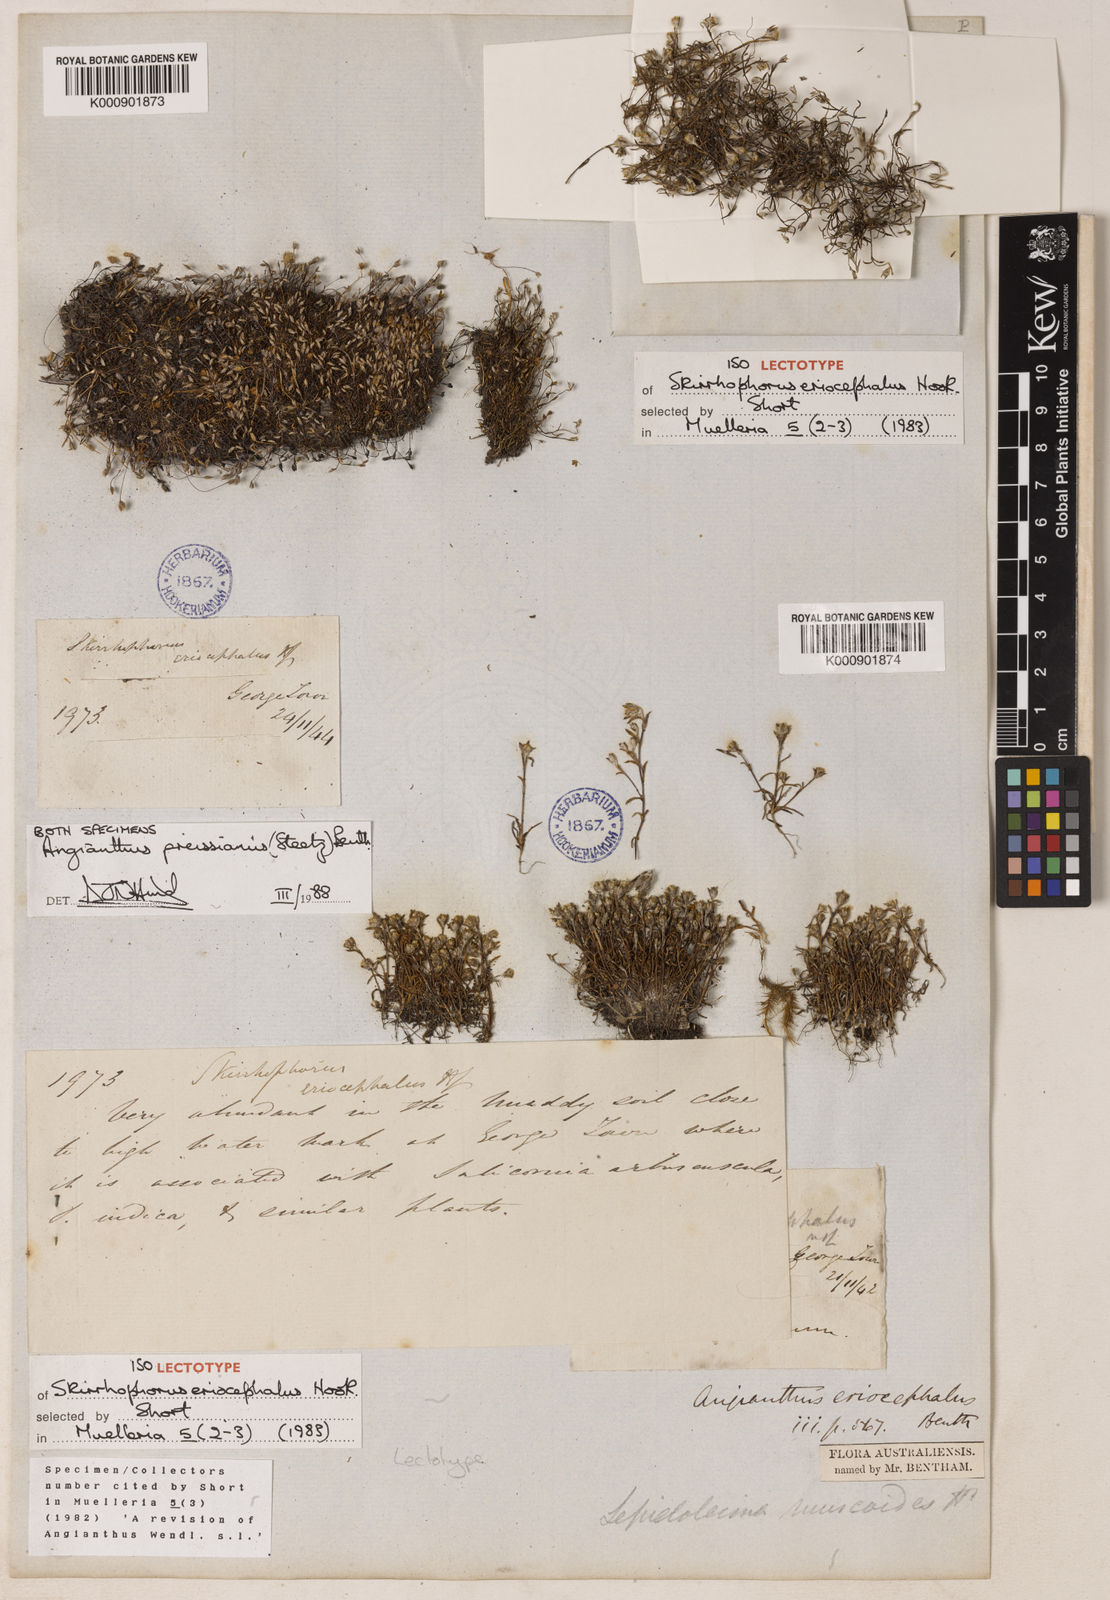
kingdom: Plantae
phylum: Tracheophyta
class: Magnoliopsida
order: Asterales
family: Asteraceae
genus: Angianthus
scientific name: Angianthus preissianus
